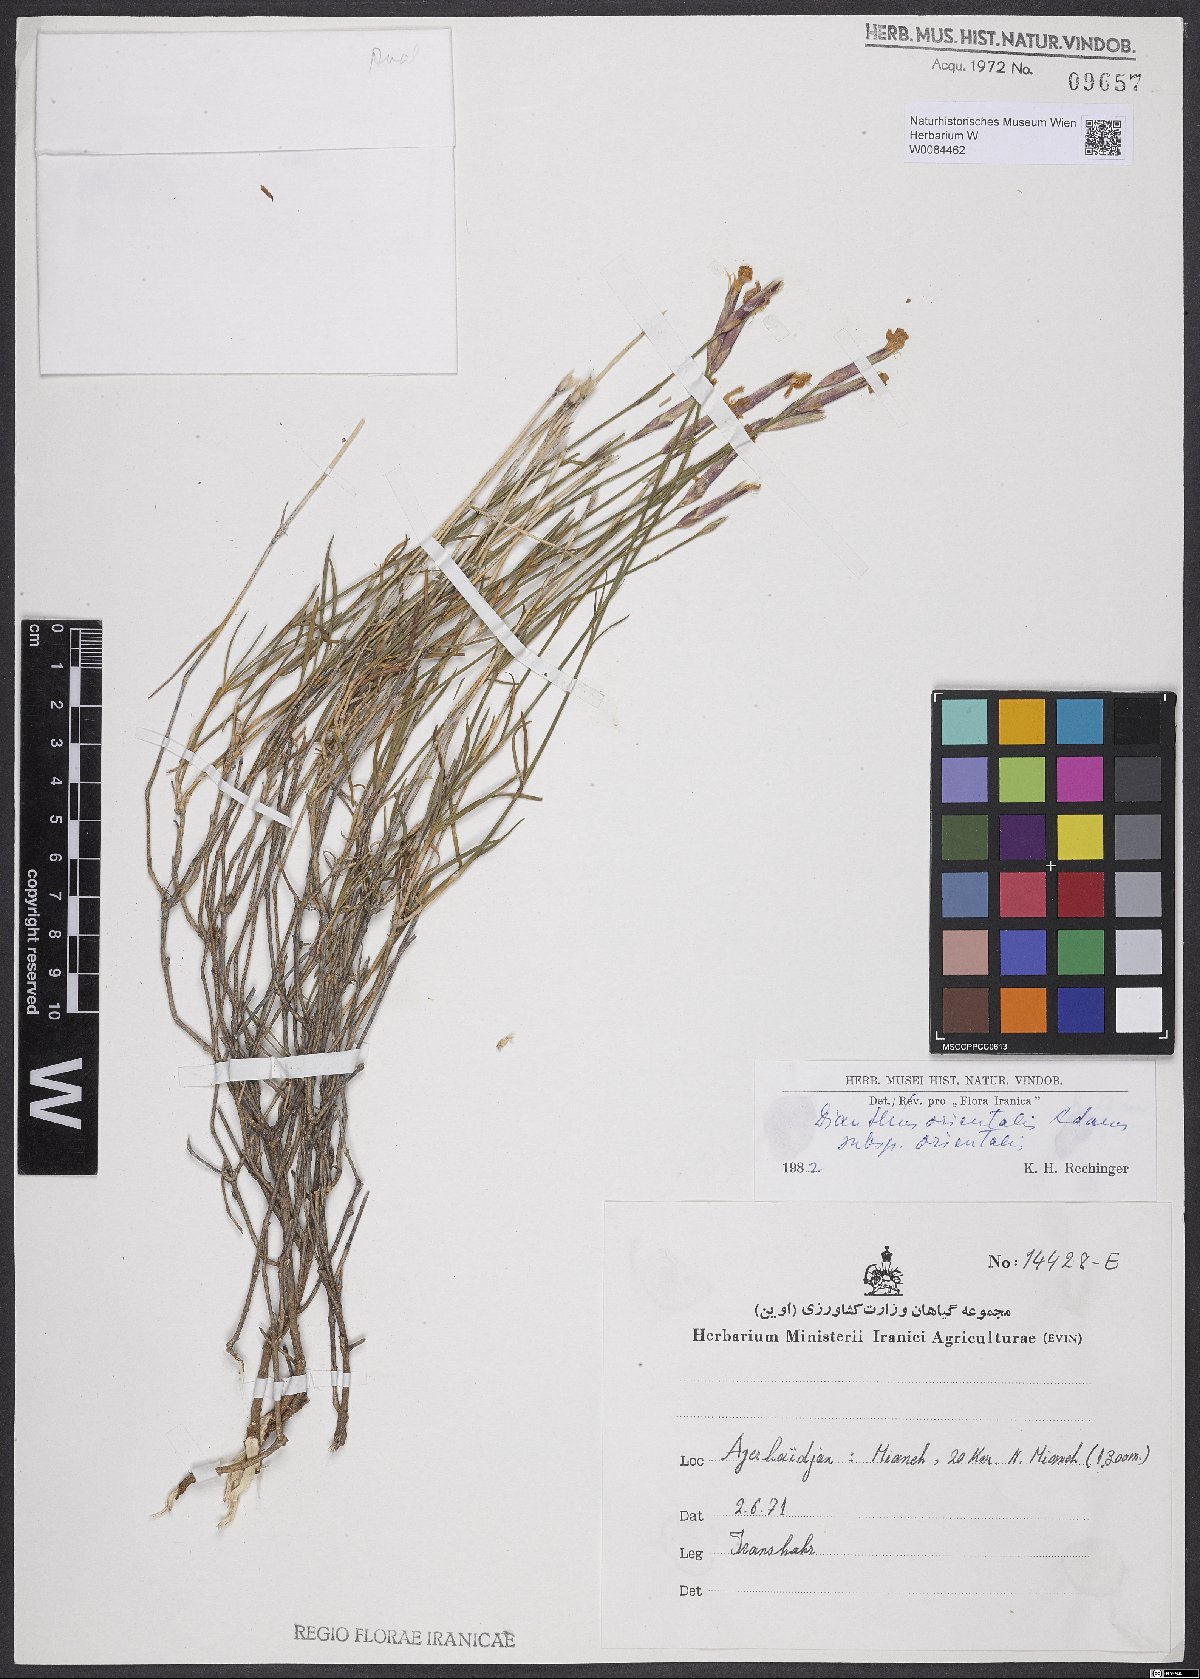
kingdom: Plantae
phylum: Tracheophyta
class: Magnoliopsida
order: Caryophyllales
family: Caryophyllaceae
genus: Dianthus
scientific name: Dianthus orientalis
